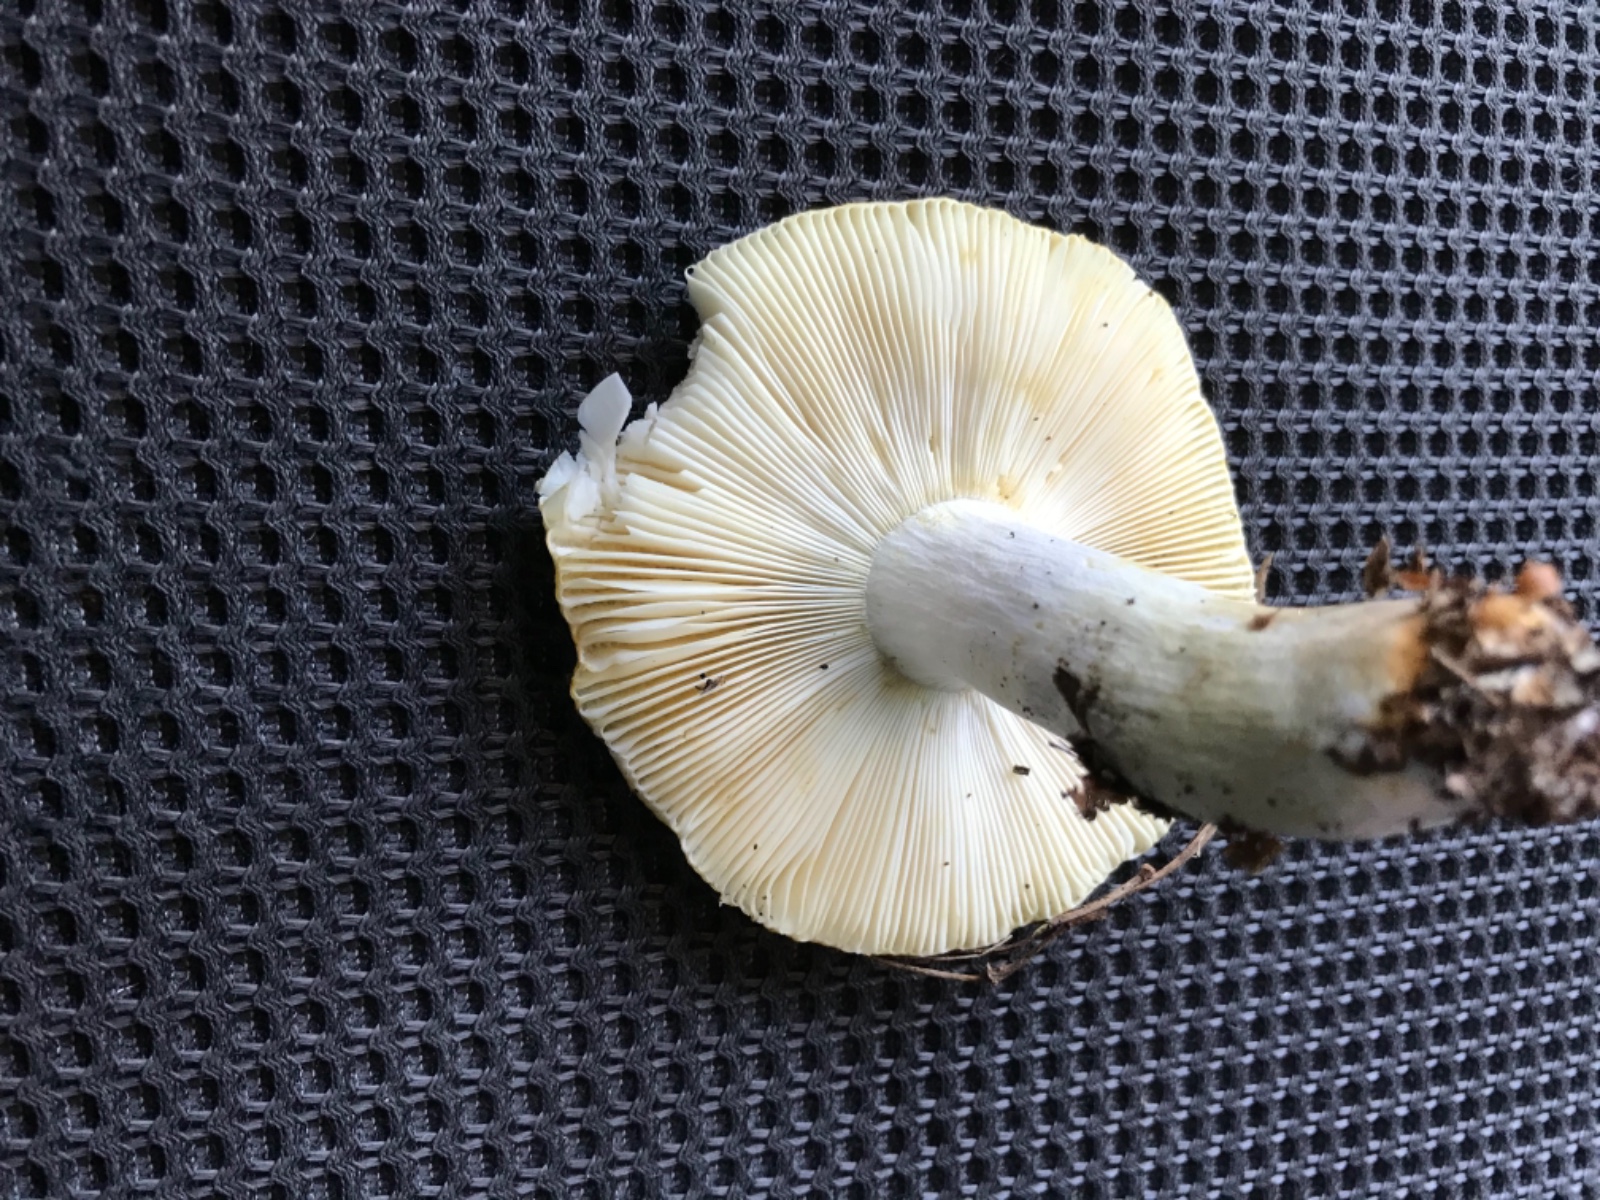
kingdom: Fungi
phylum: Basidiomycota
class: Agaricomycetes
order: Russulales
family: Russulaceae
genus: Russula
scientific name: Russula claroflava
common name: birke-skørhat
